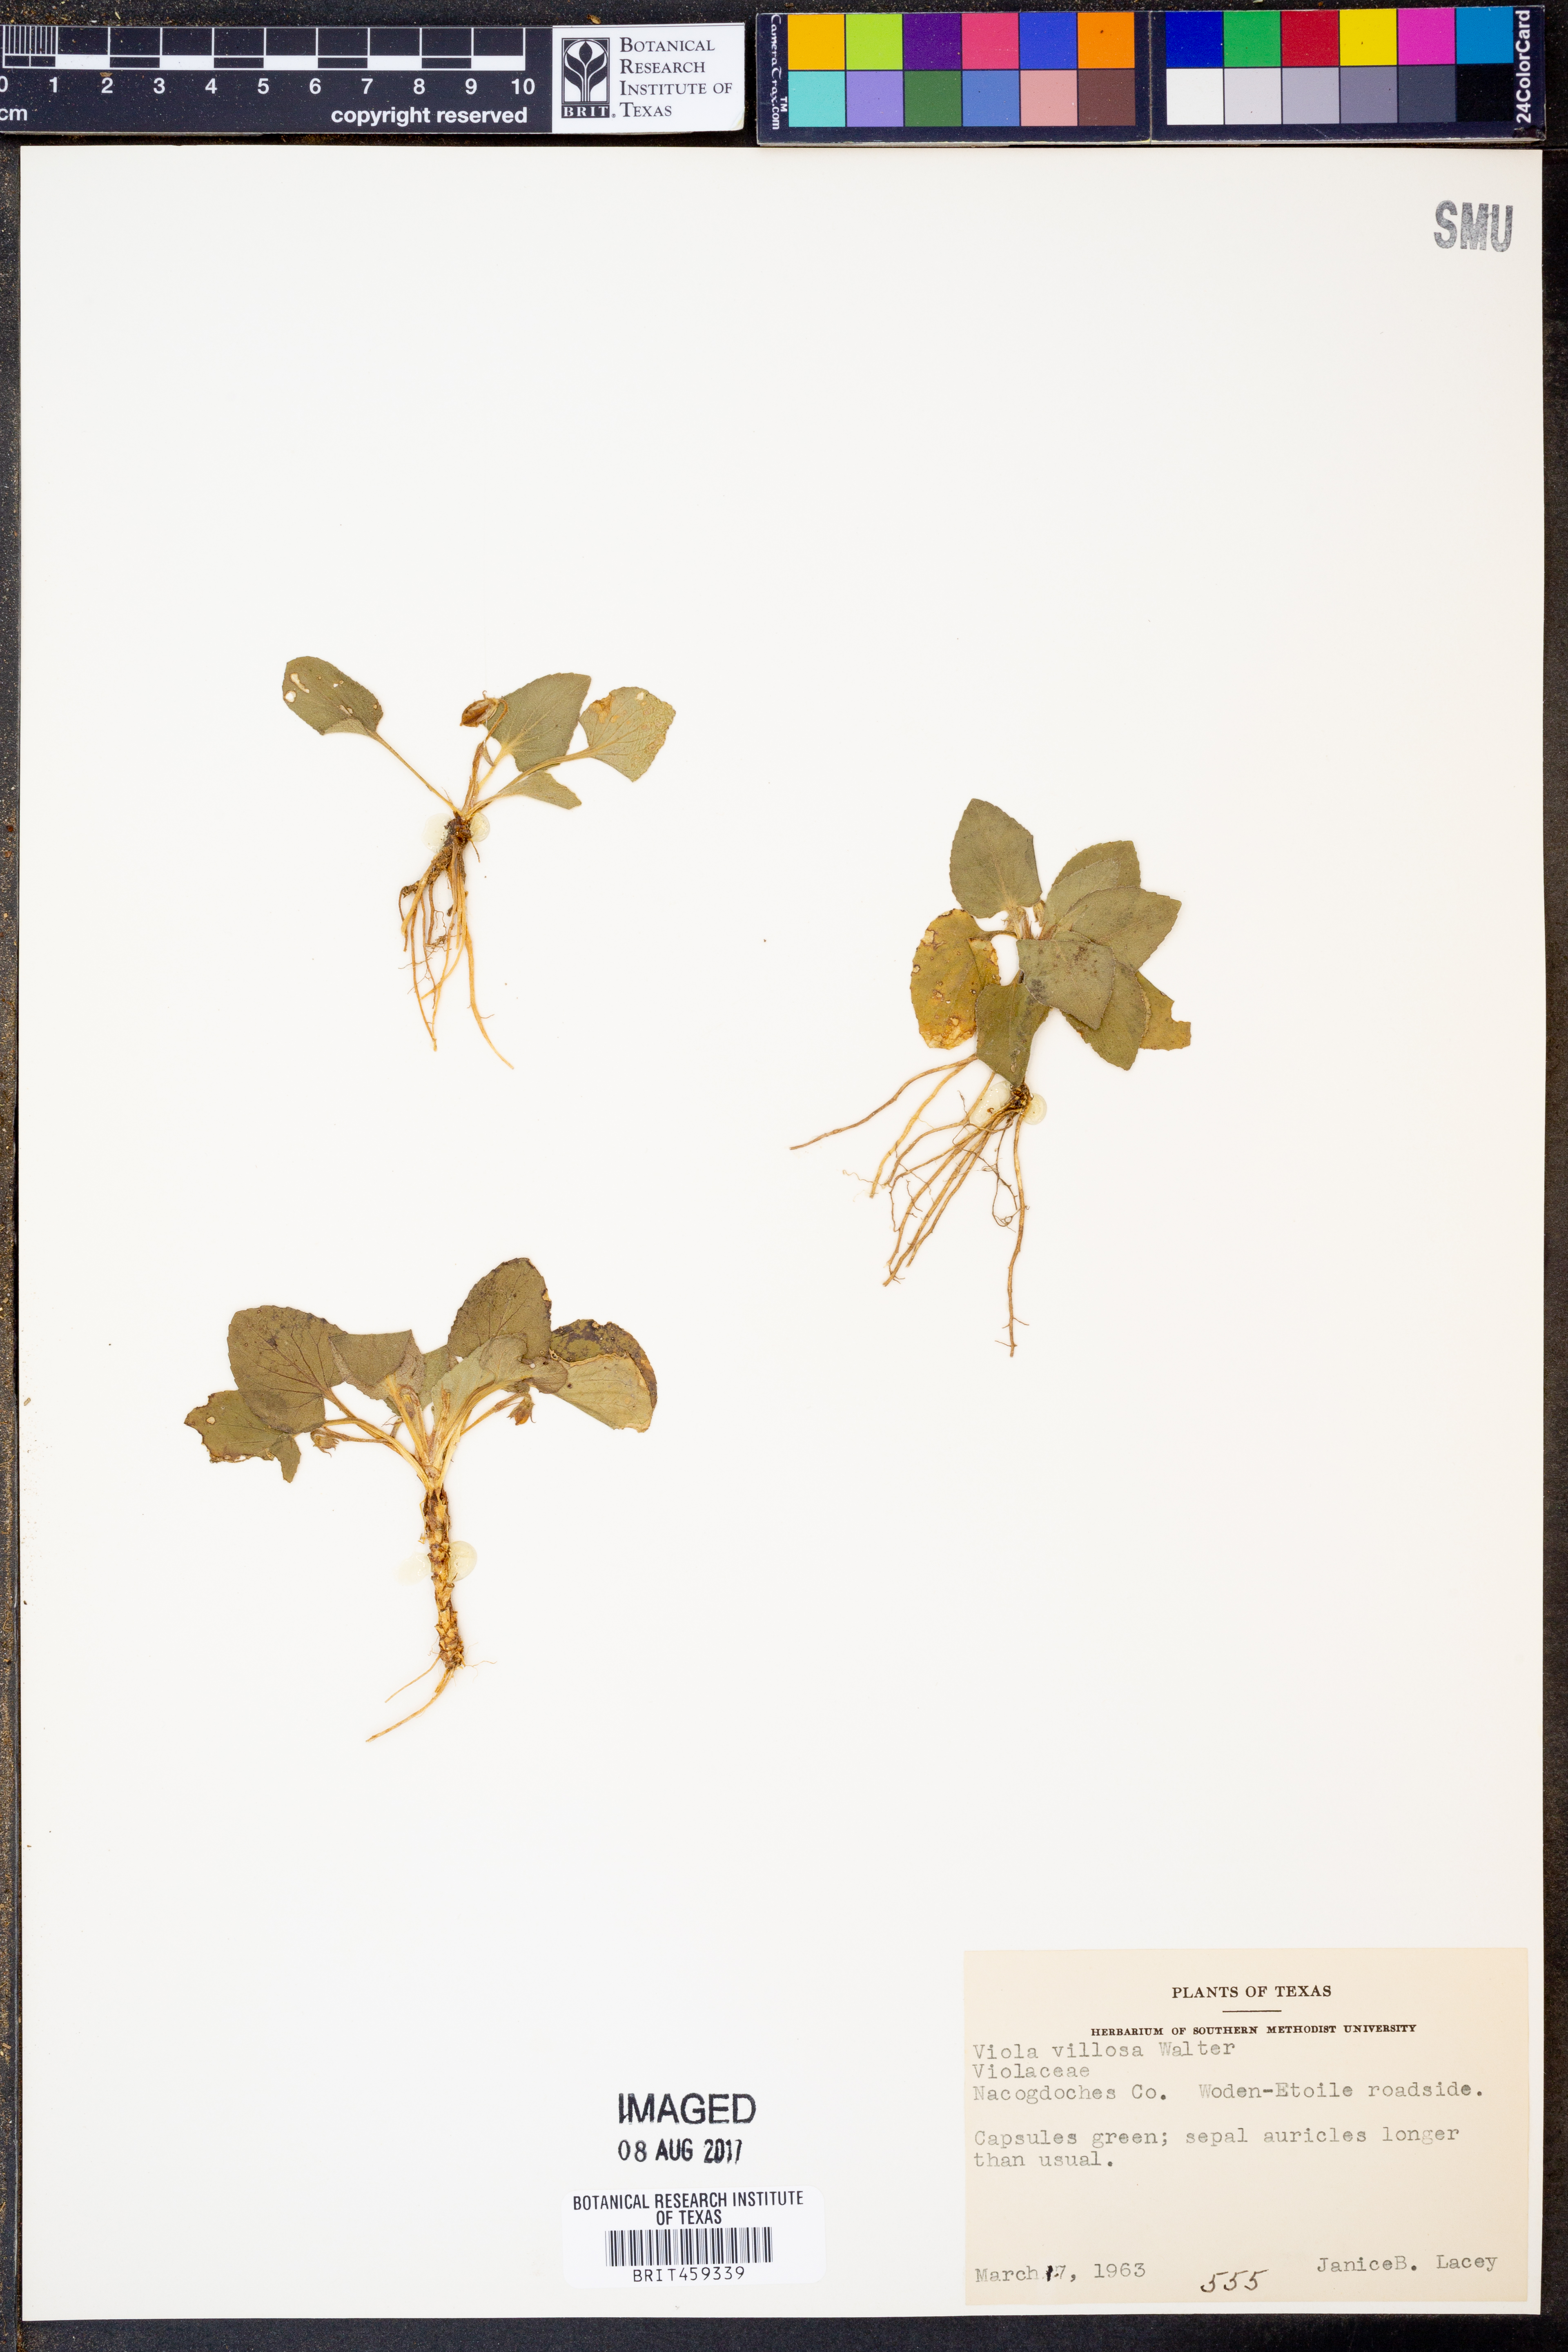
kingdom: Plantae
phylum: Tracheophyta
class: Magnoliopsida
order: Malpighiales
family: Violaceae
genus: Viola
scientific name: Viola villosa
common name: Carolina violet
